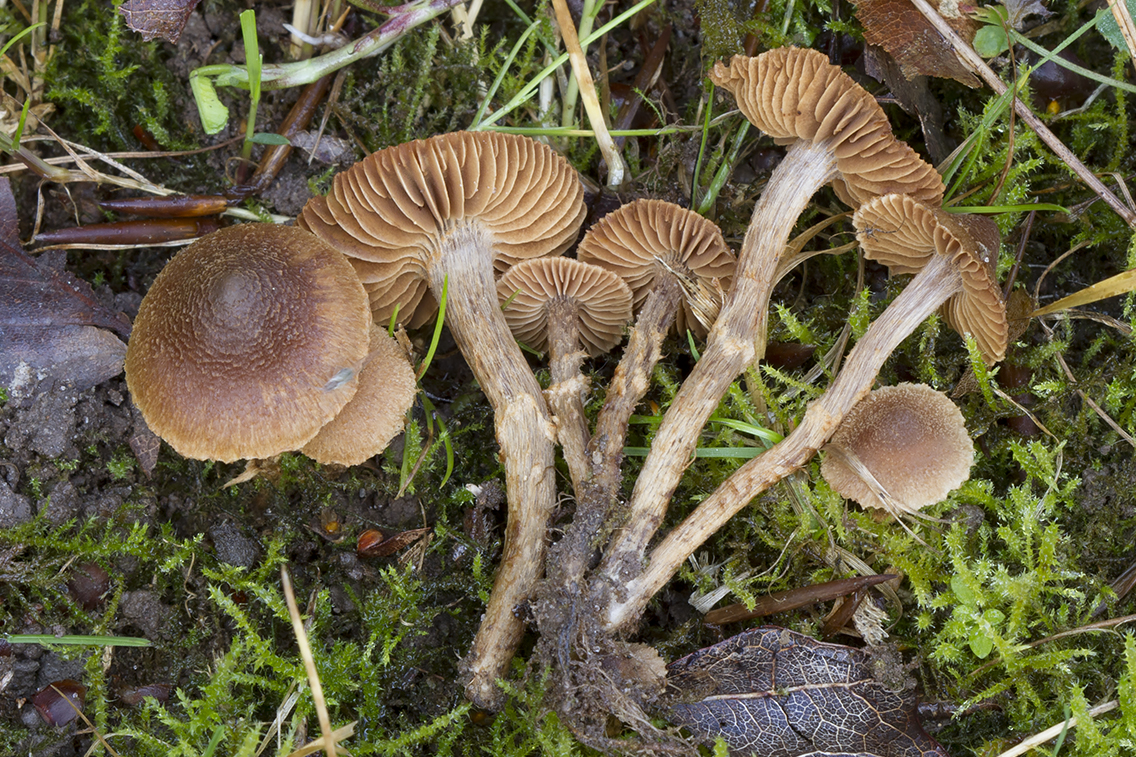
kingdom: Fungi
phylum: Basidiomycota
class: Agaricomycetes
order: Agaricales
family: Cortinariaceae
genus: Cortinarius
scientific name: Cortinarius quercoconicus
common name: agernskål-slørhat
